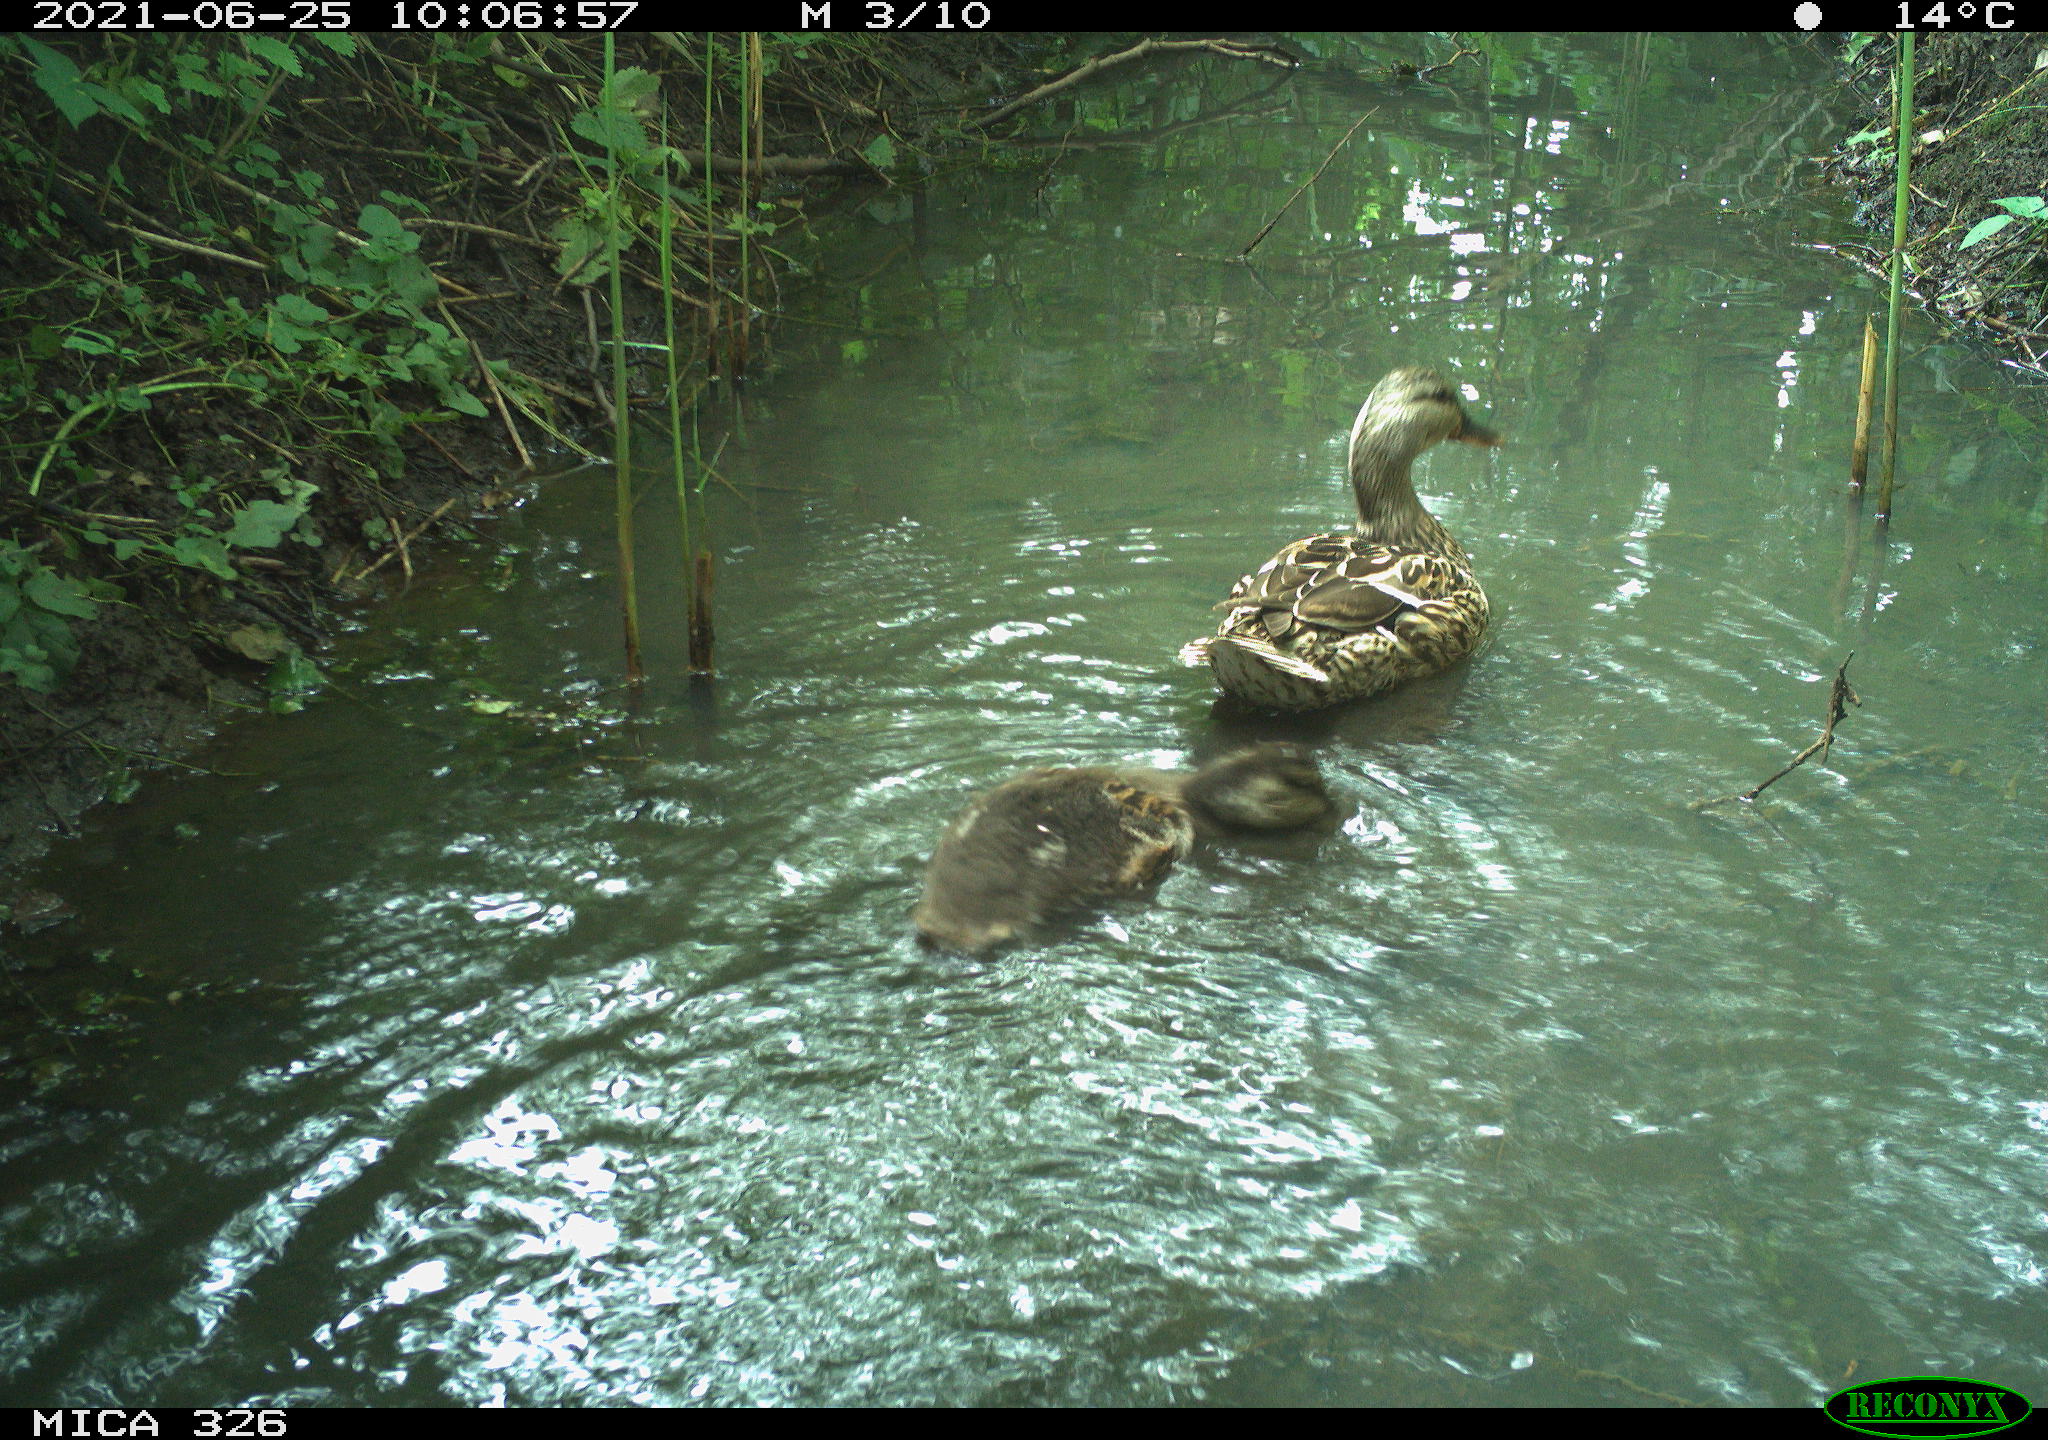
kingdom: Animalia
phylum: Chordata
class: Aves
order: Anseriformes
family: Anatidae
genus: Anas
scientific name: Anas platyrhynchos
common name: Mallard
